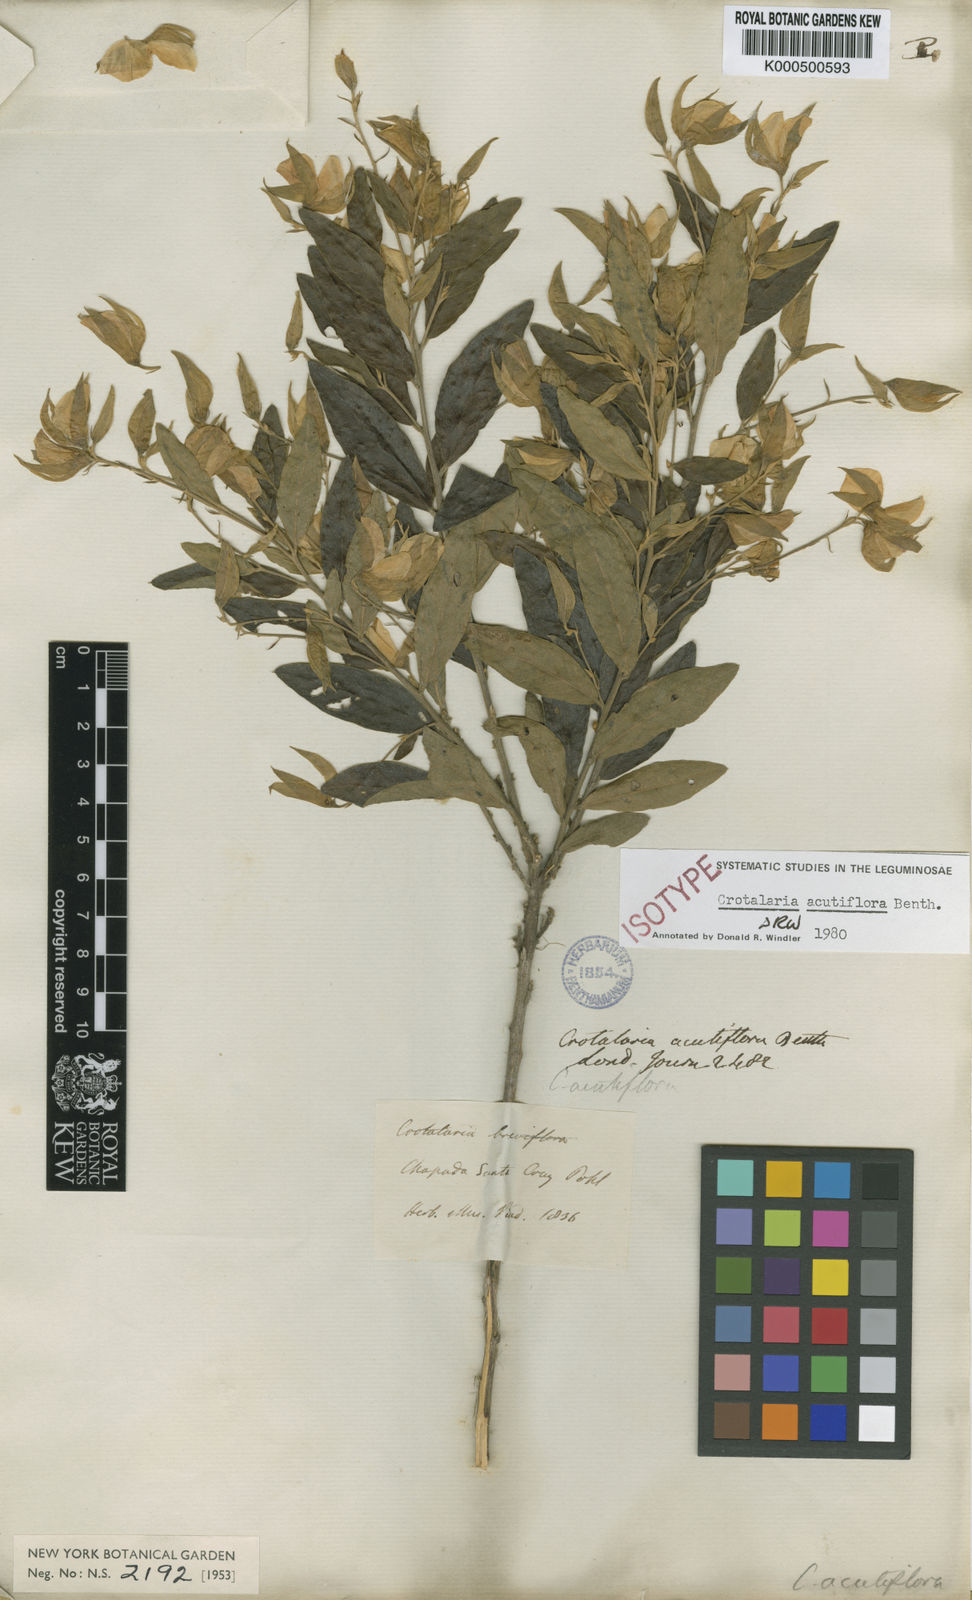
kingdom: Plantae
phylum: Tracheophyta
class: Magnoliopsida
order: Fabales
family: Fabaceae
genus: Crotalaria
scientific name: Crotalaria grandiflora
